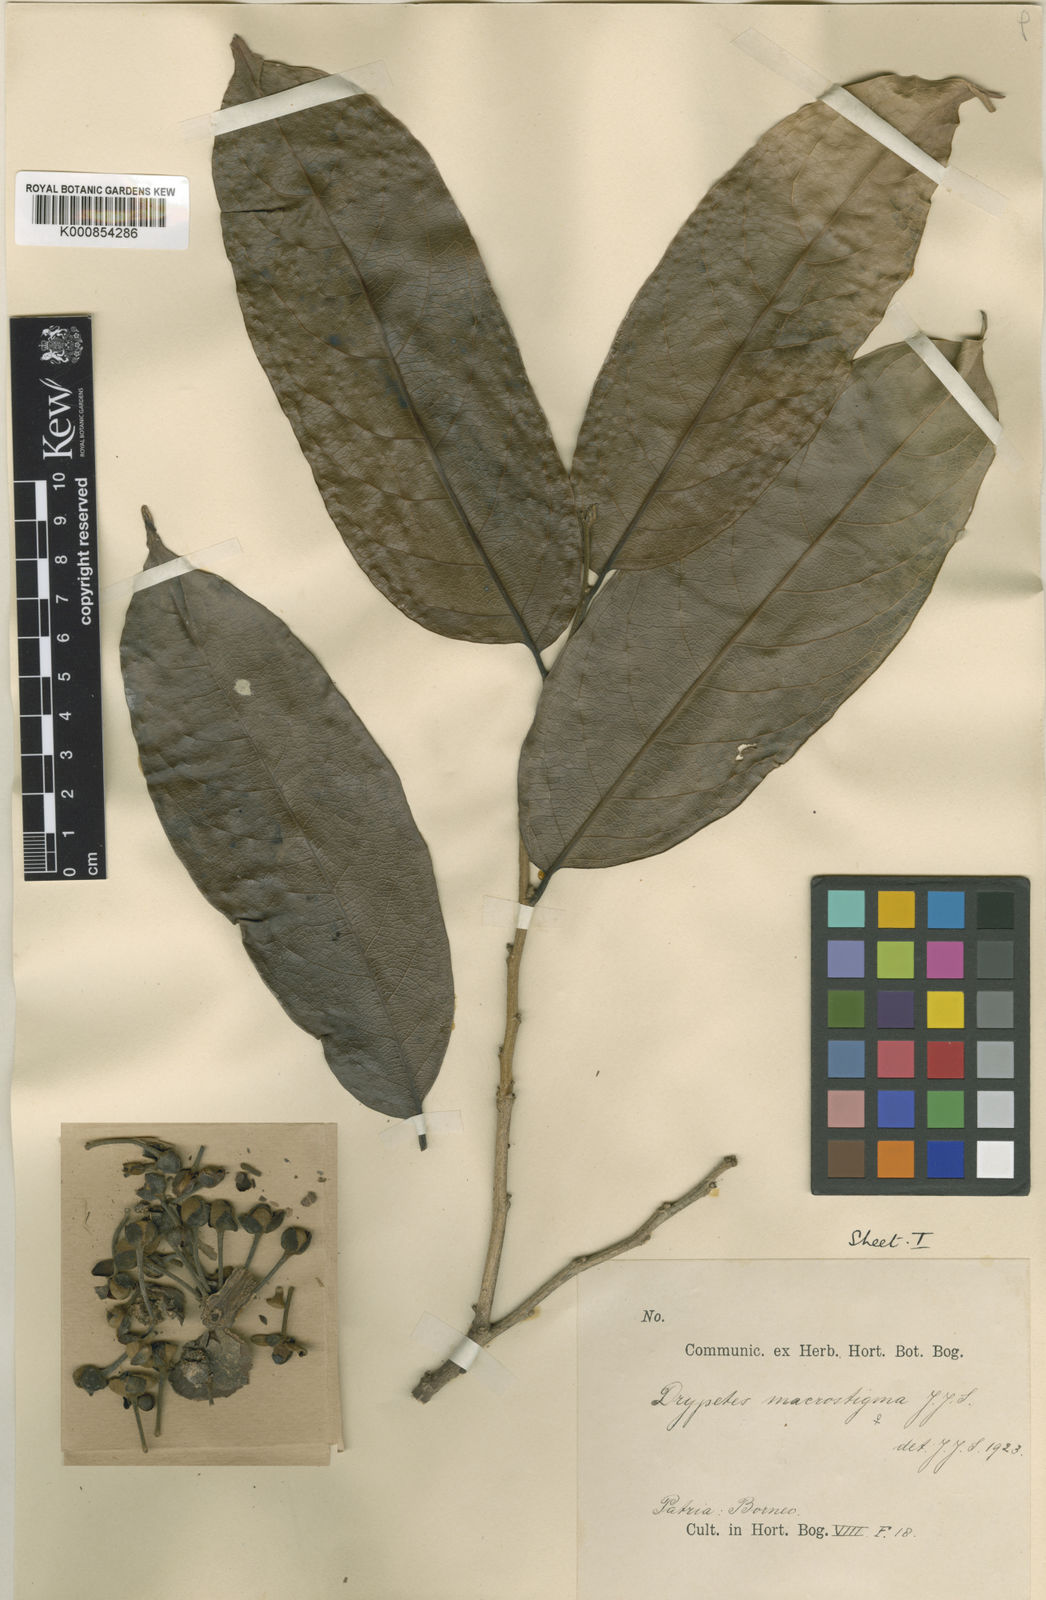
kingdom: Plantae
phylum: Tracheophyta
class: Magnoliopsida
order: Malpighiales
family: Putranjivaceae
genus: Drypetes
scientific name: Drypetes macrostigma
